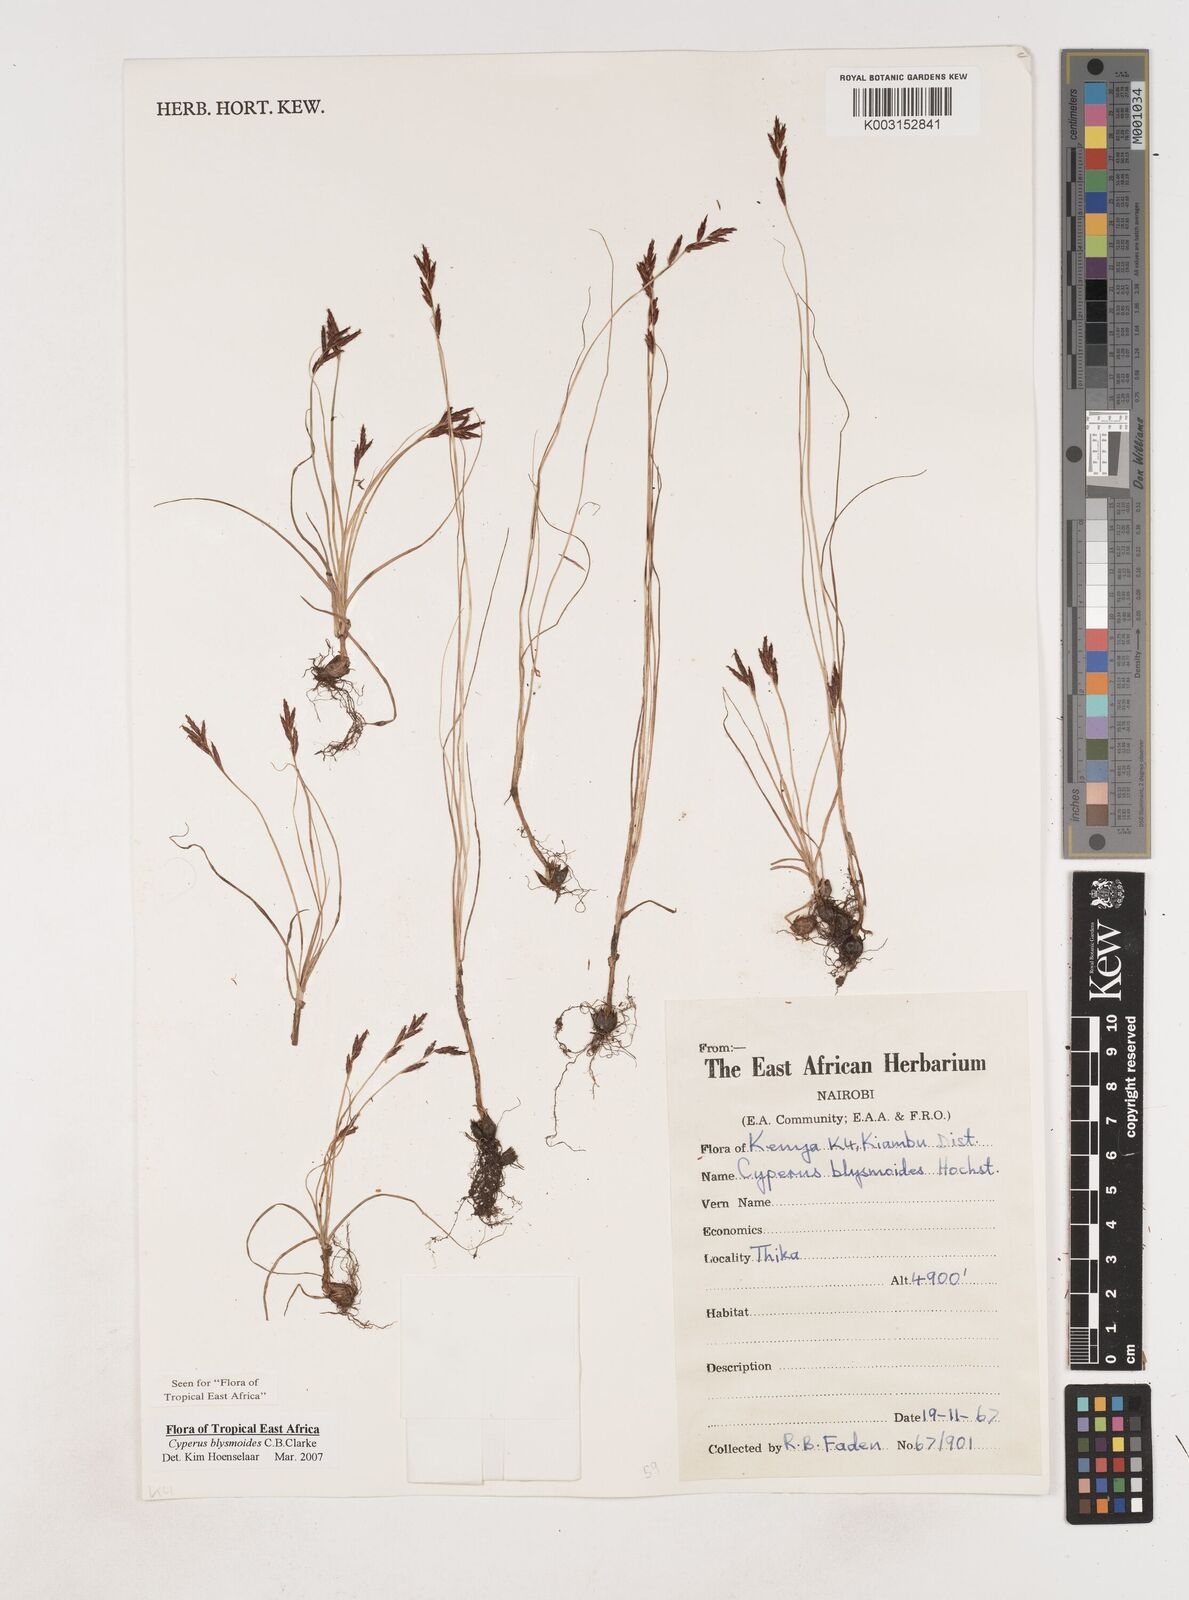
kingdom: Plantae
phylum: Tracheophyta
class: Liliopsida
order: Poales
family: Cyperaceae
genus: Cyperus
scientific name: Cyperus blysmoides
